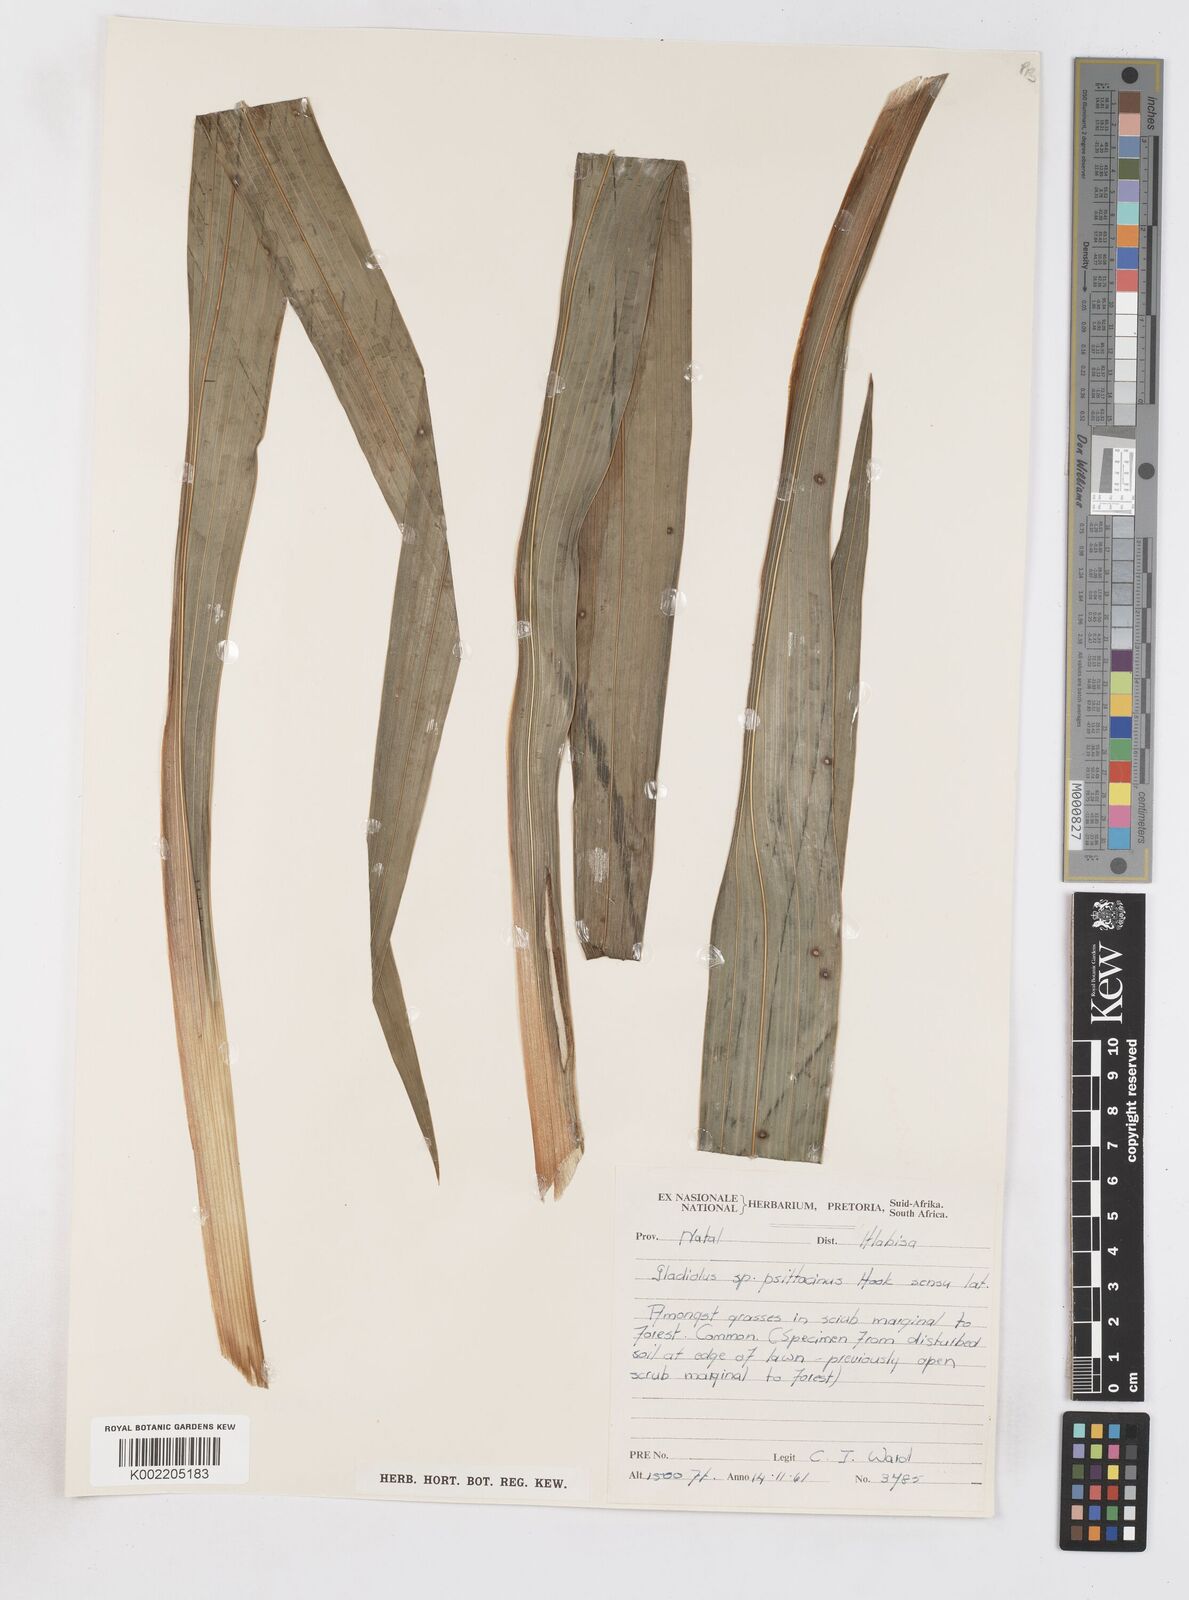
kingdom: Plantae
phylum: Tracheophyta
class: Liliopsida
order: Asparagales
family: Iridaceae
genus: Gladiolus
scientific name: Gladiolus dalenii
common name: Cornflag
